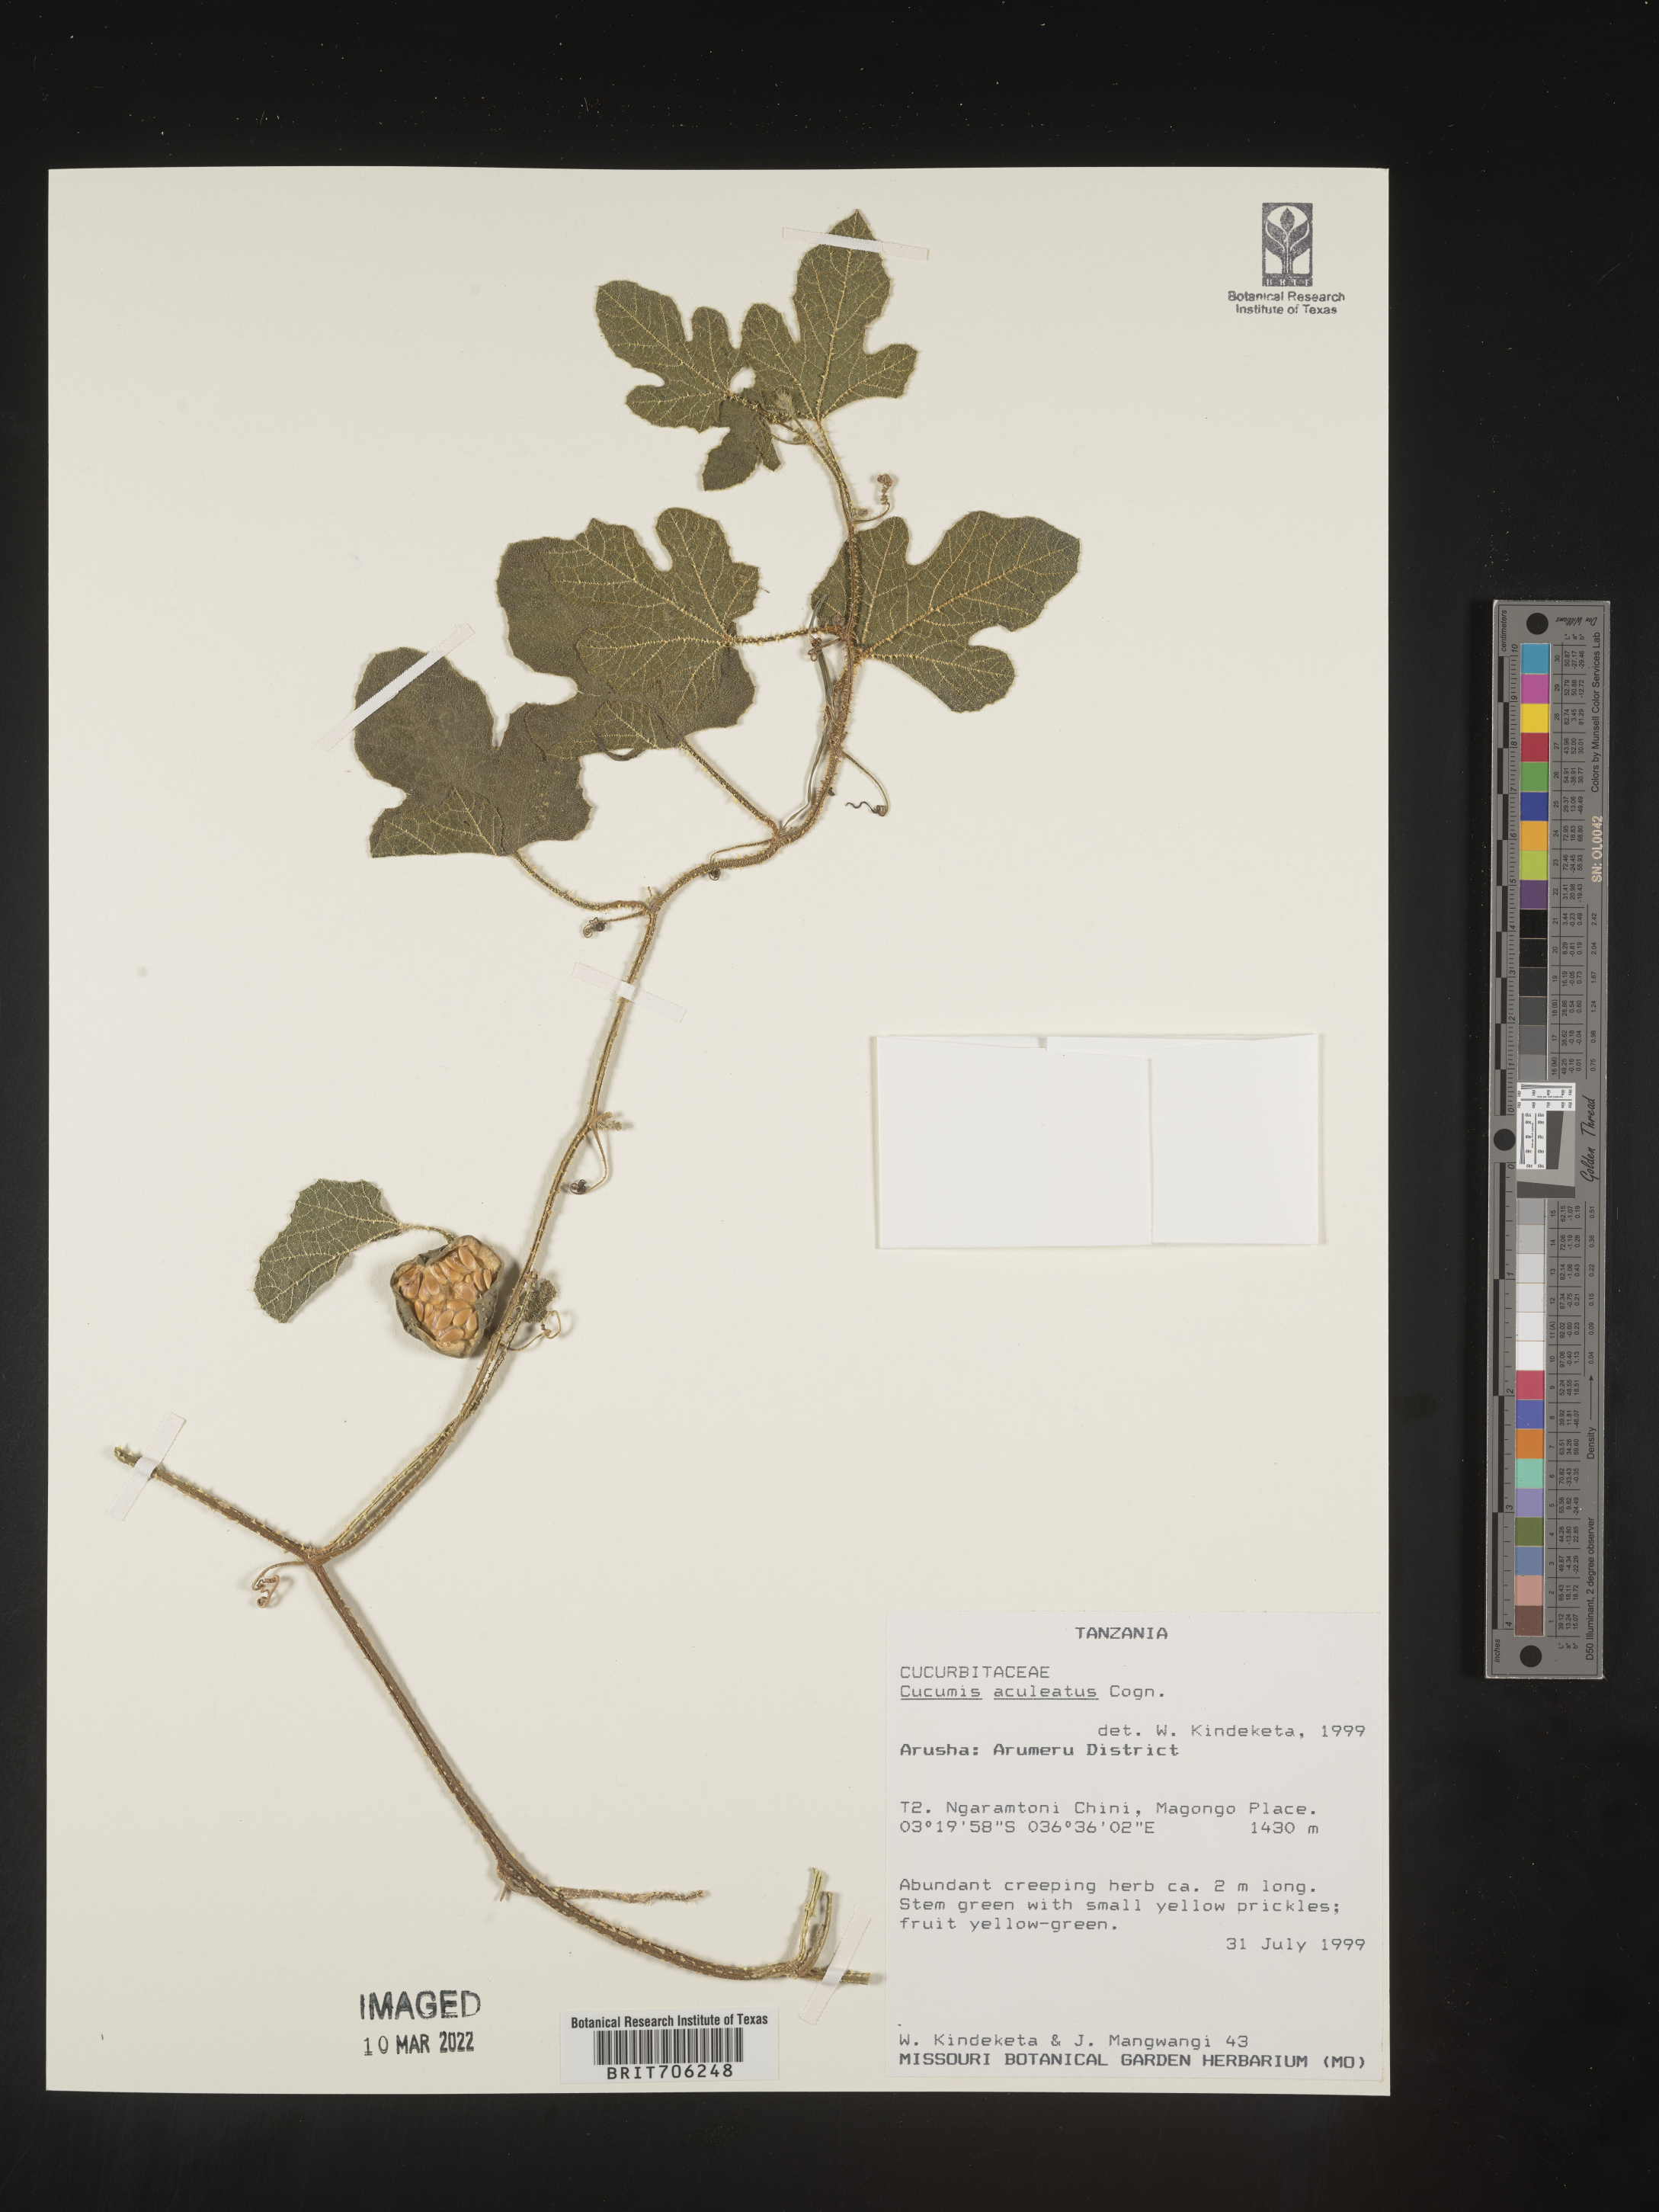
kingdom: Plantae
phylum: Tracheophyta
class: Magnoliopsida
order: Cucurbitales
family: Cucurbitaceae
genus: Cucumis
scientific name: Cucumis
